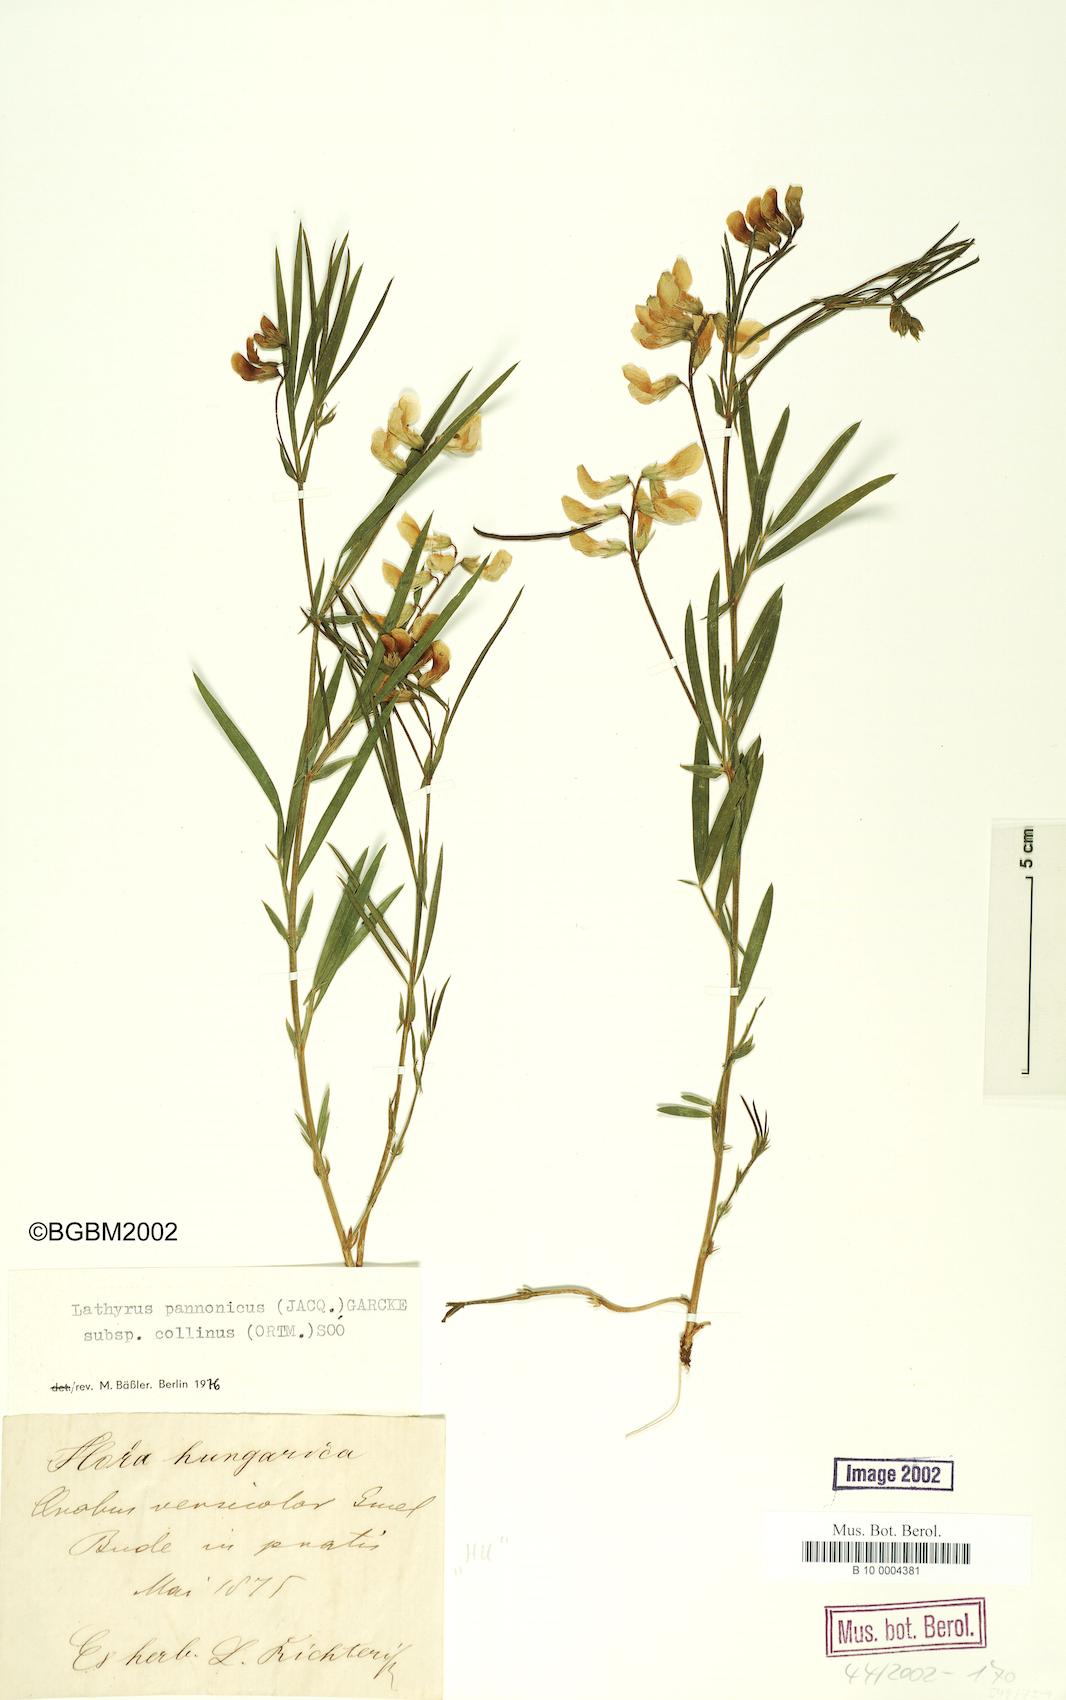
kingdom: Plantae
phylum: Tracheophyta
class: Magnoliopsida
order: Fabales
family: Fabaceae
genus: Lathyrus
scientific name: Lathyrus pannonicus
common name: Pea
